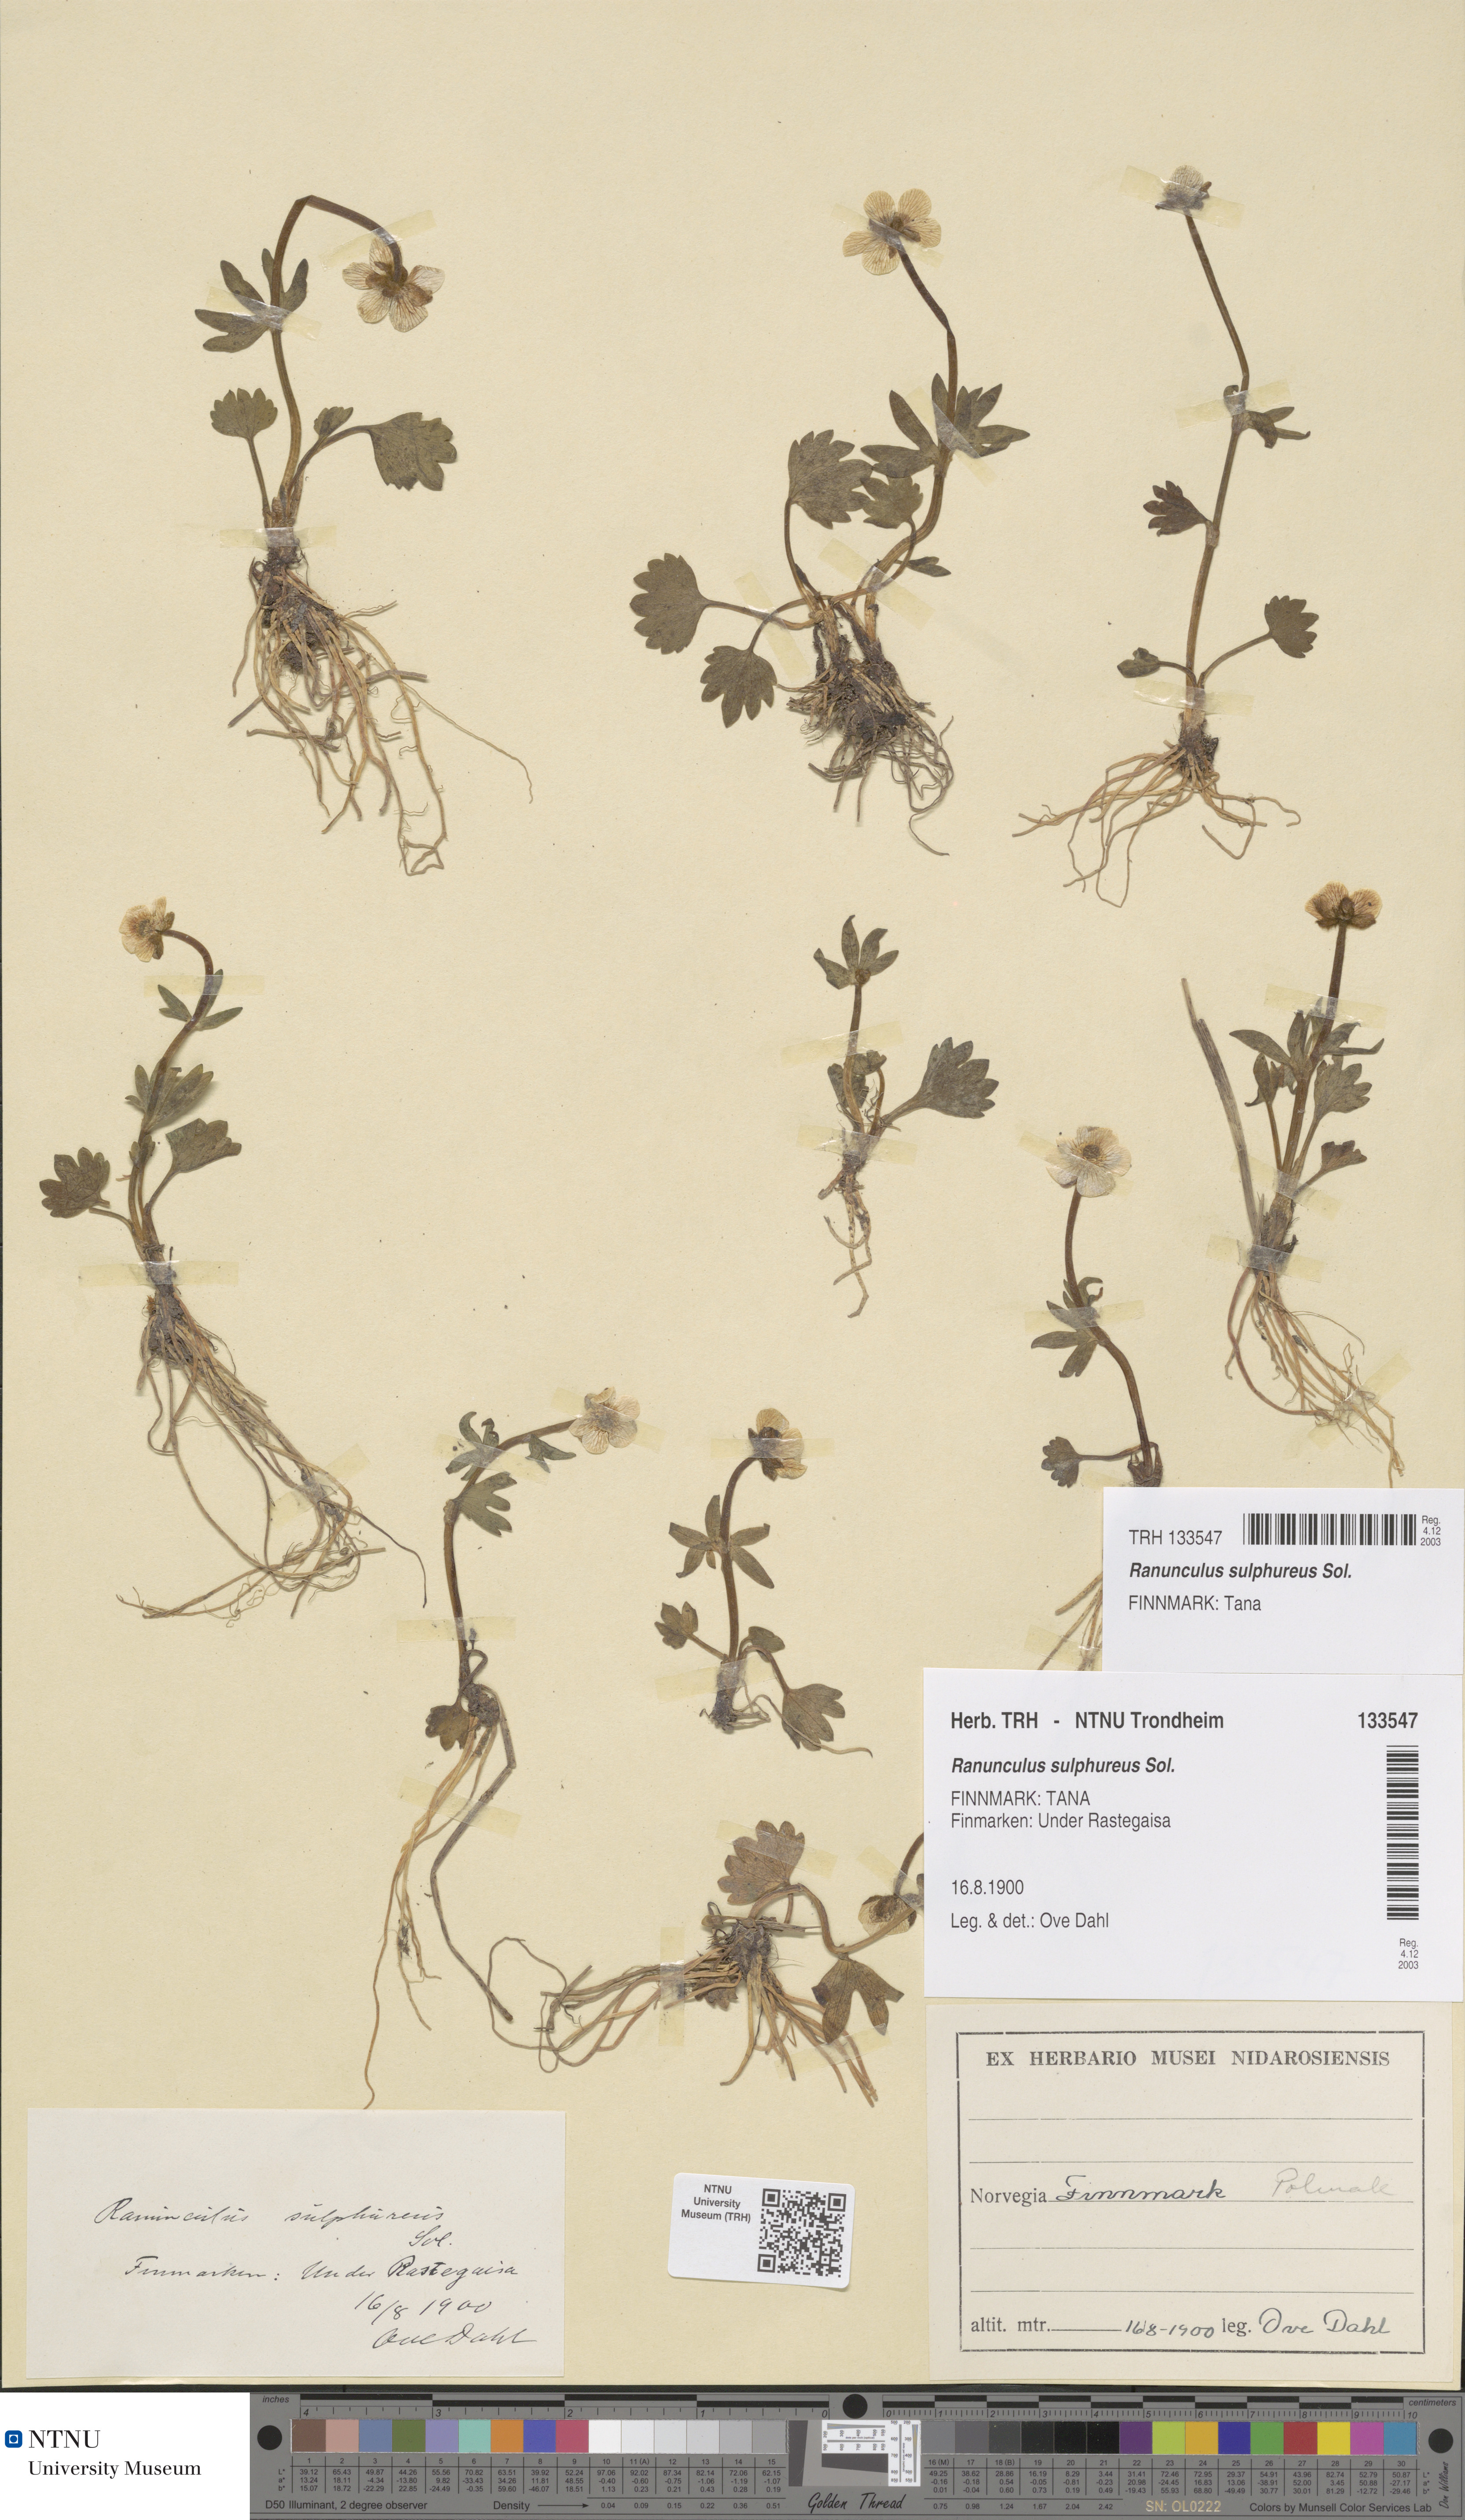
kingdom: Plantae
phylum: Tracheophyta
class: Magnoliopsida
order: Ranunculales
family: Ranunculaceae
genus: Ranunculus
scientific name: Ranunculus sulphureus
